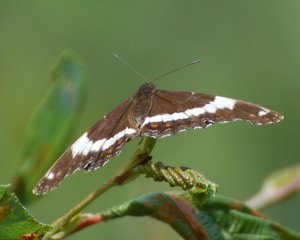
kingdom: Animalia
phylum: Arthropoda
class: Insecta
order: Lepidoptera
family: Nymphalidae
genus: Limenitis
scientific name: Limenitis arthemis
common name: Red-spotted Admiral
